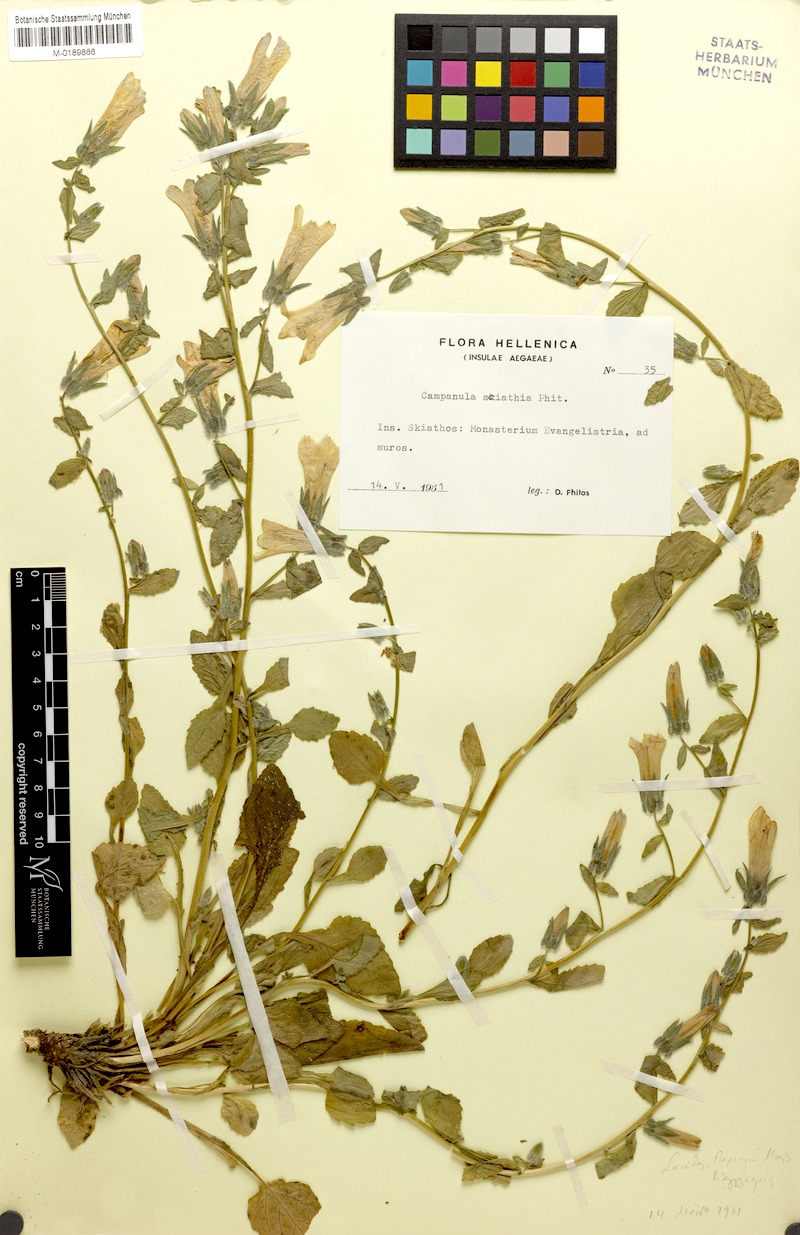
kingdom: Plantae
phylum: Tracheophyta
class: Magnoliopsida
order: Asterales
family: Campanulaceae
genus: Campanula
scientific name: Campanula sciathia
